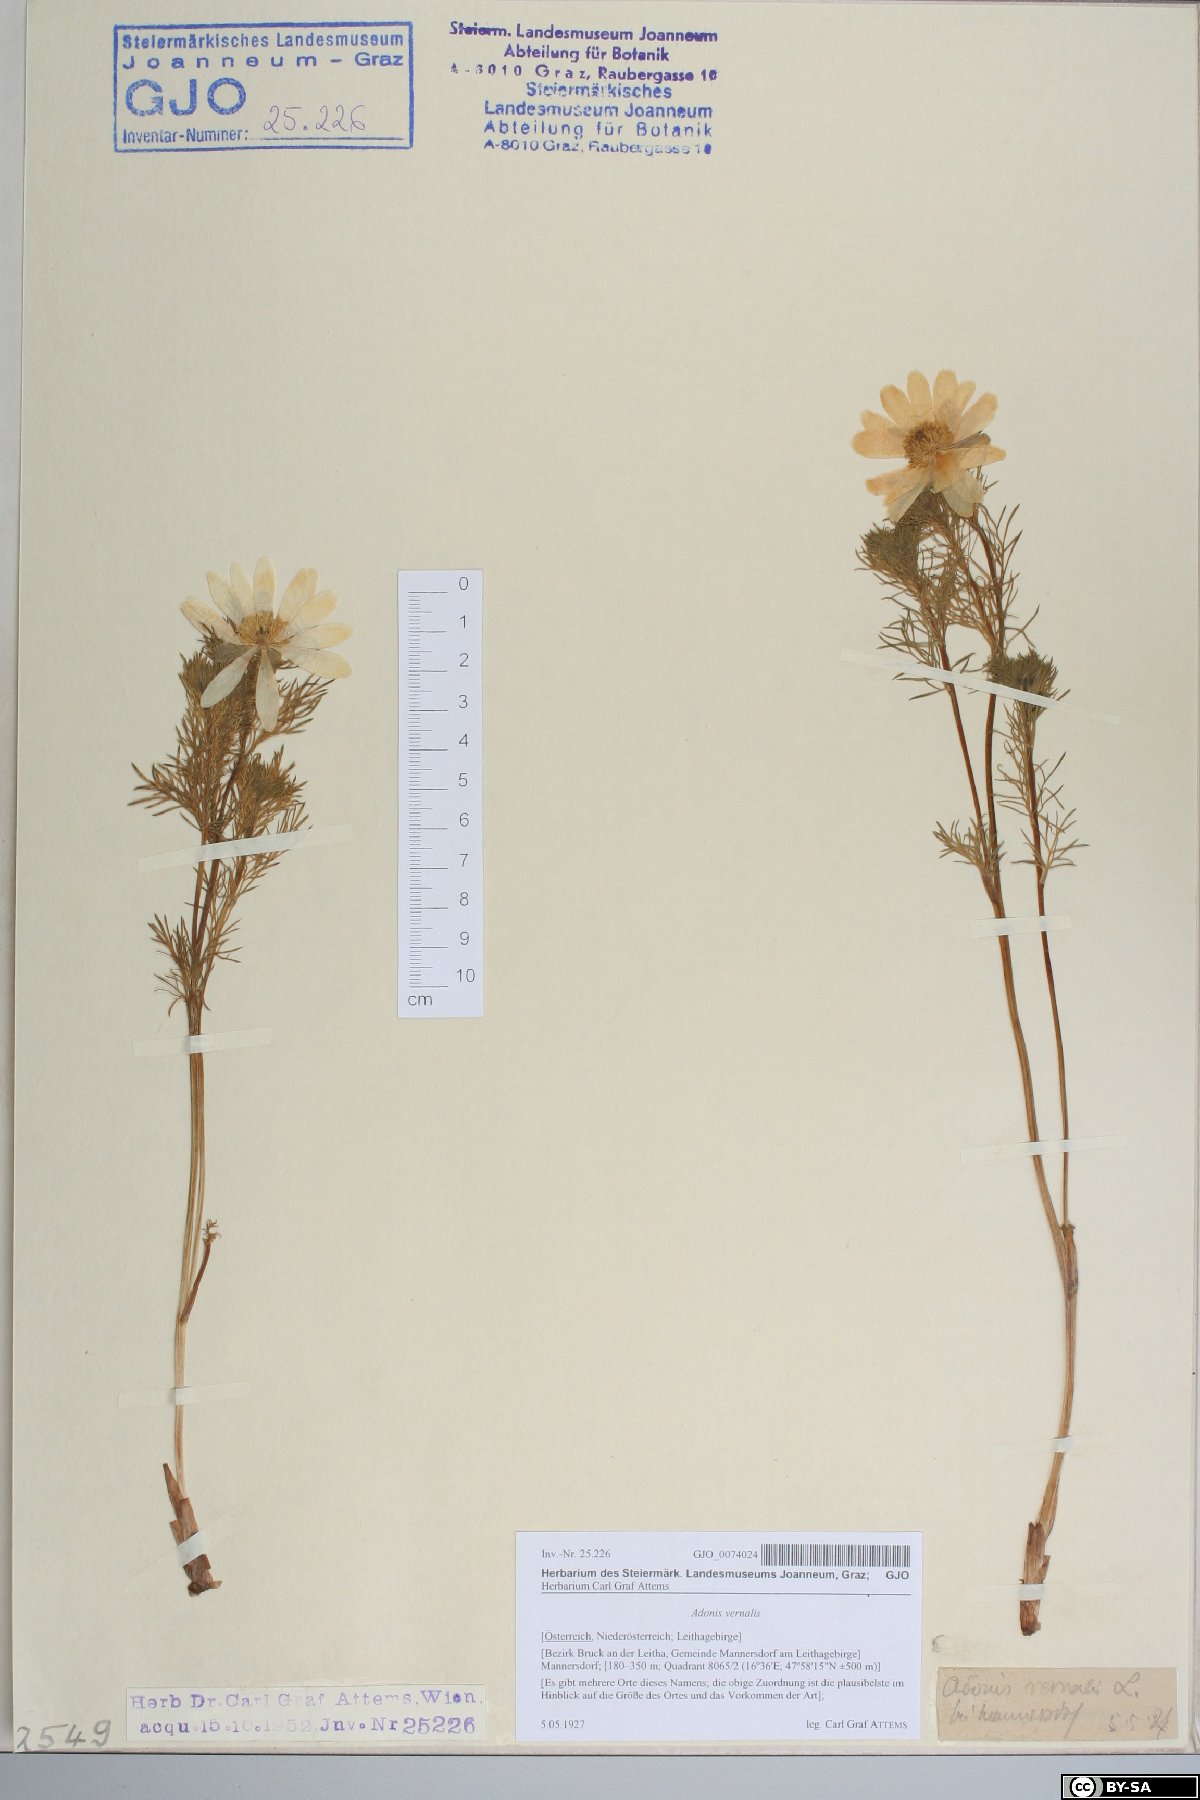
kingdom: Plantae
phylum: Tracheophyta
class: Magnoliopsida
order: Ranunculales
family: Ranunculaceae
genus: Adonis
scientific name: Adonis vernalis
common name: Yellow pheasants-eye
